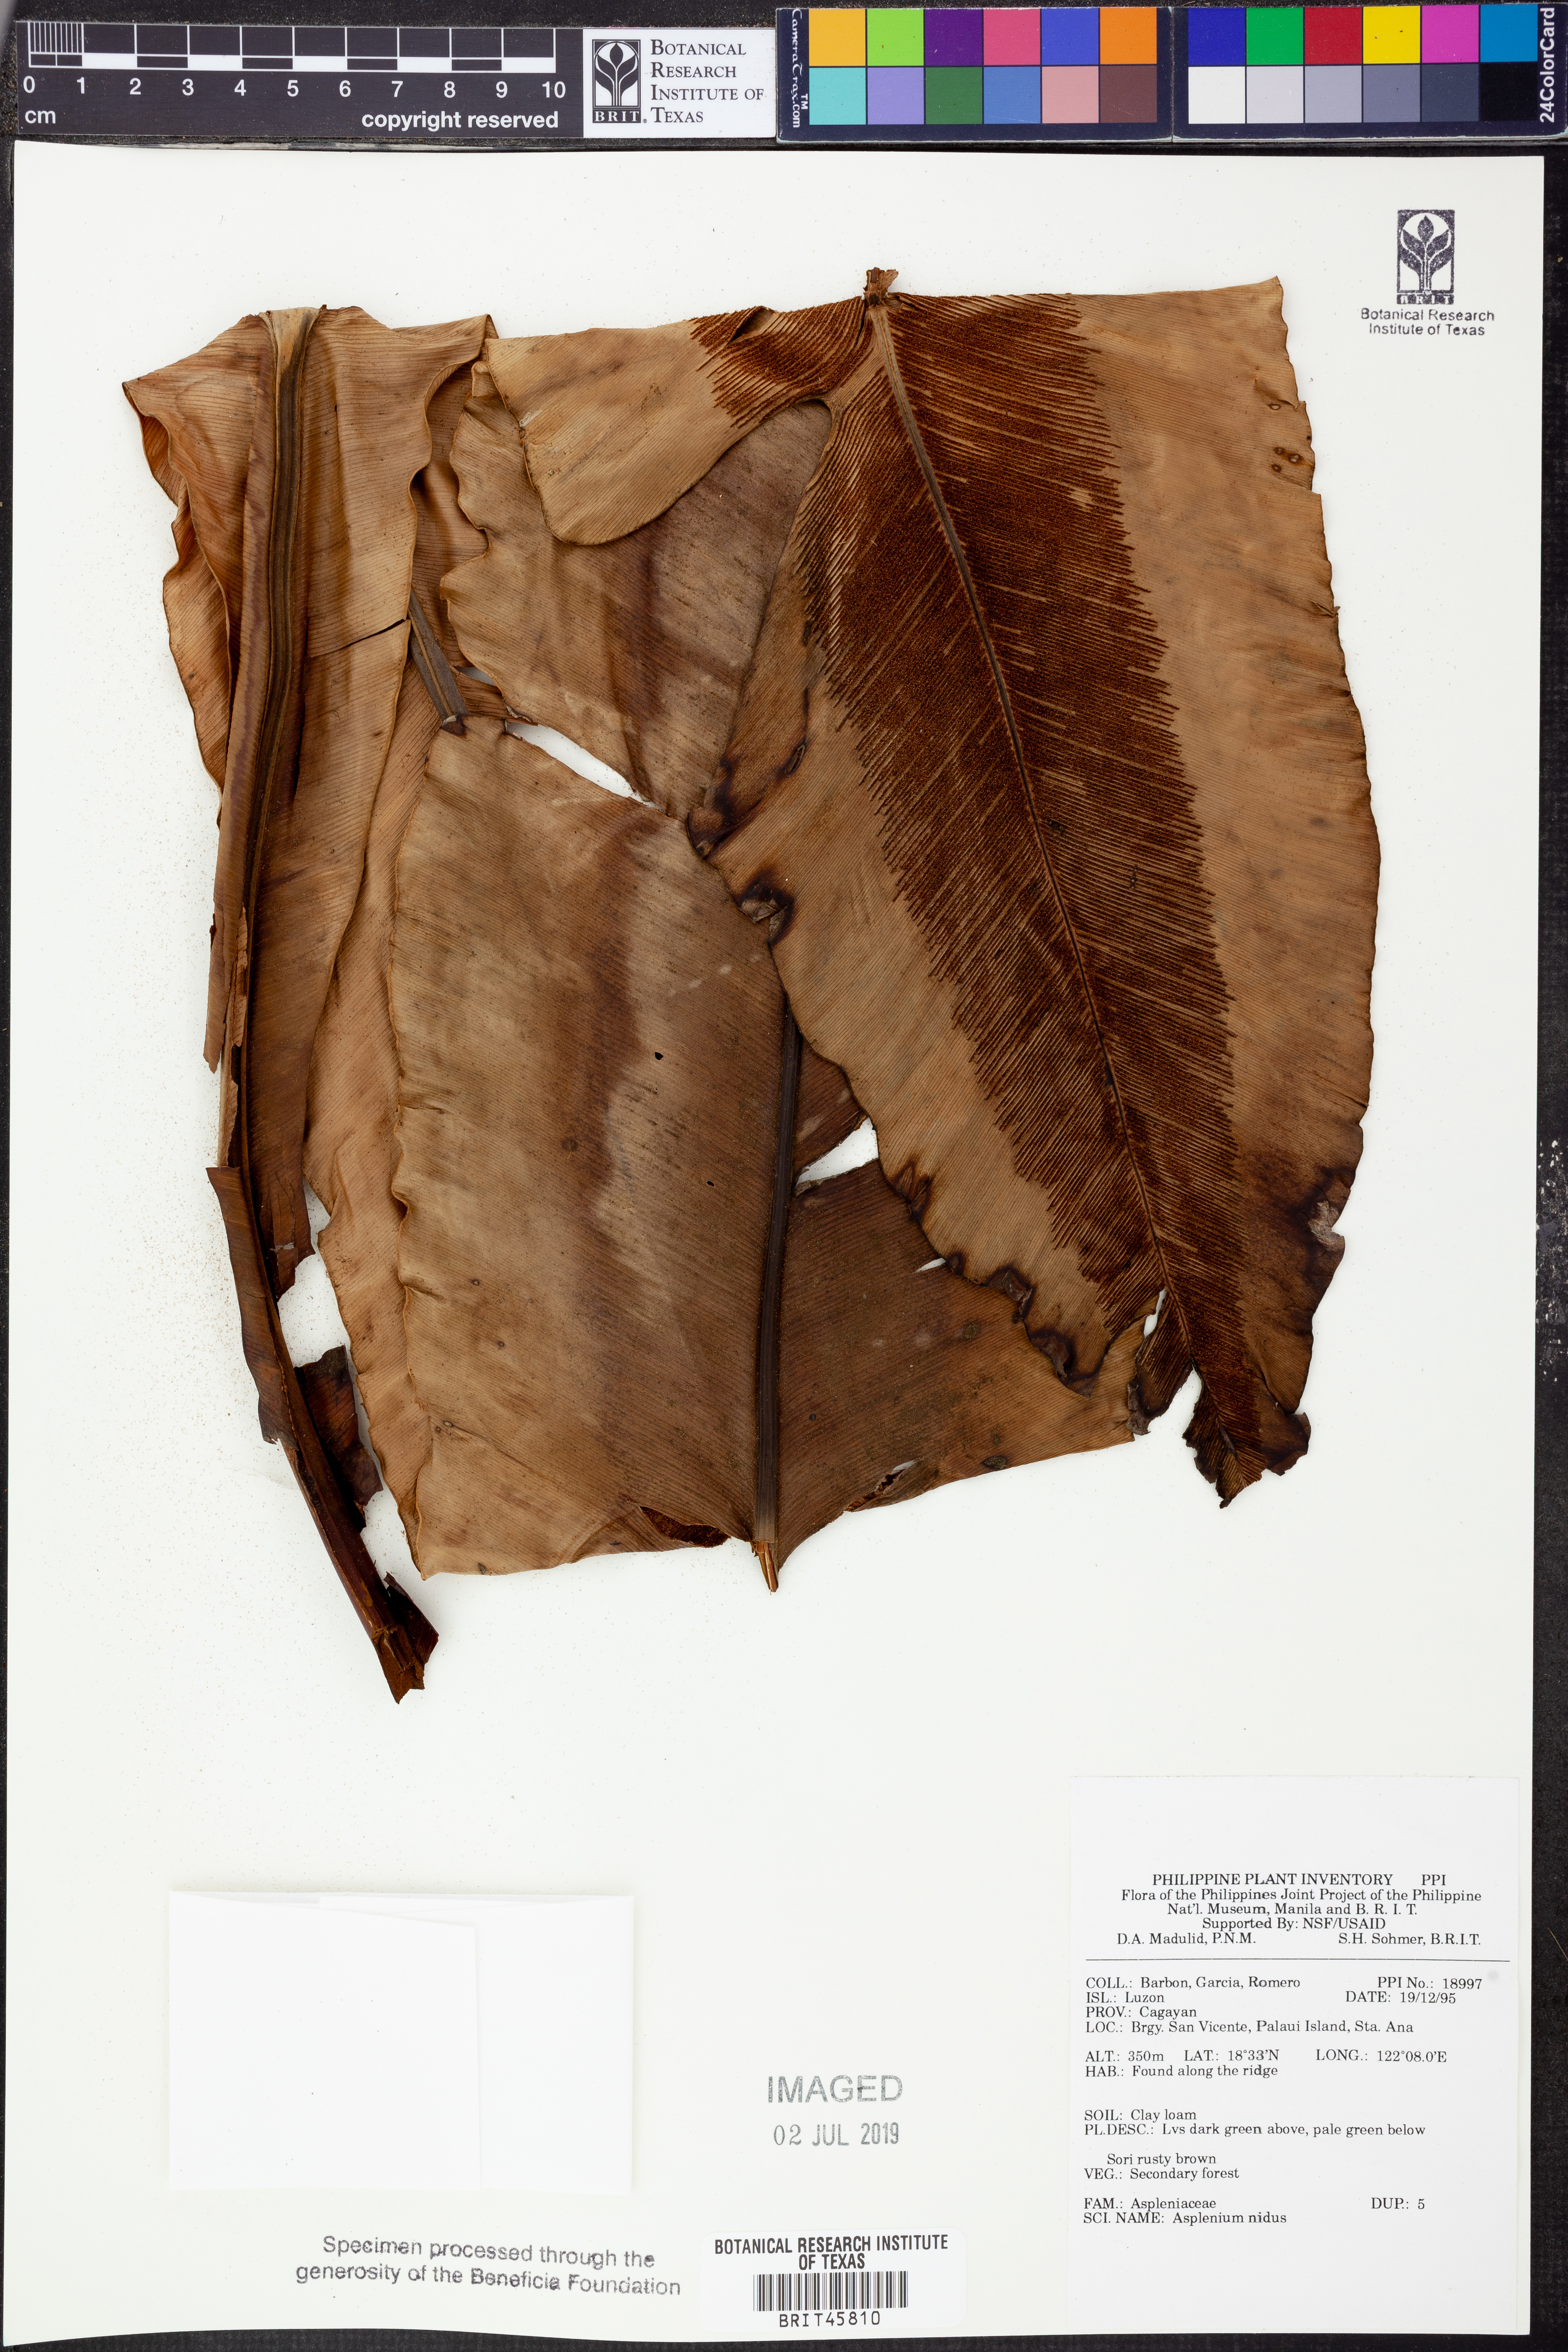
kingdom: Plantae
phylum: Tracheophyta
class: Polypodiopsida
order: Polypodiales
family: Aspleniaceae
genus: Asplenium
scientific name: Asplenium nidus
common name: Bird's-nest fern
